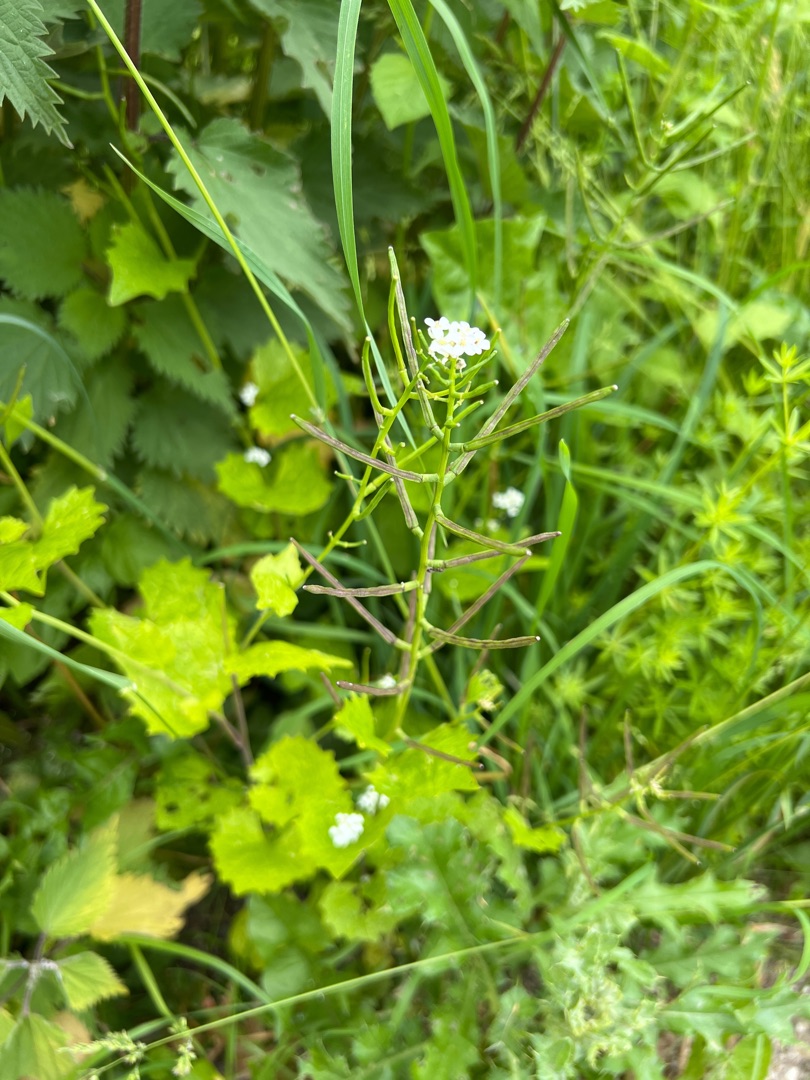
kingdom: Plantae
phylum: Tracheophyta
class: Magnoliopsida
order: Brassicales
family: Brassicaceae
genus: Alliaria
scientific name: Alliaria petiolata
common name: Løgkarse
